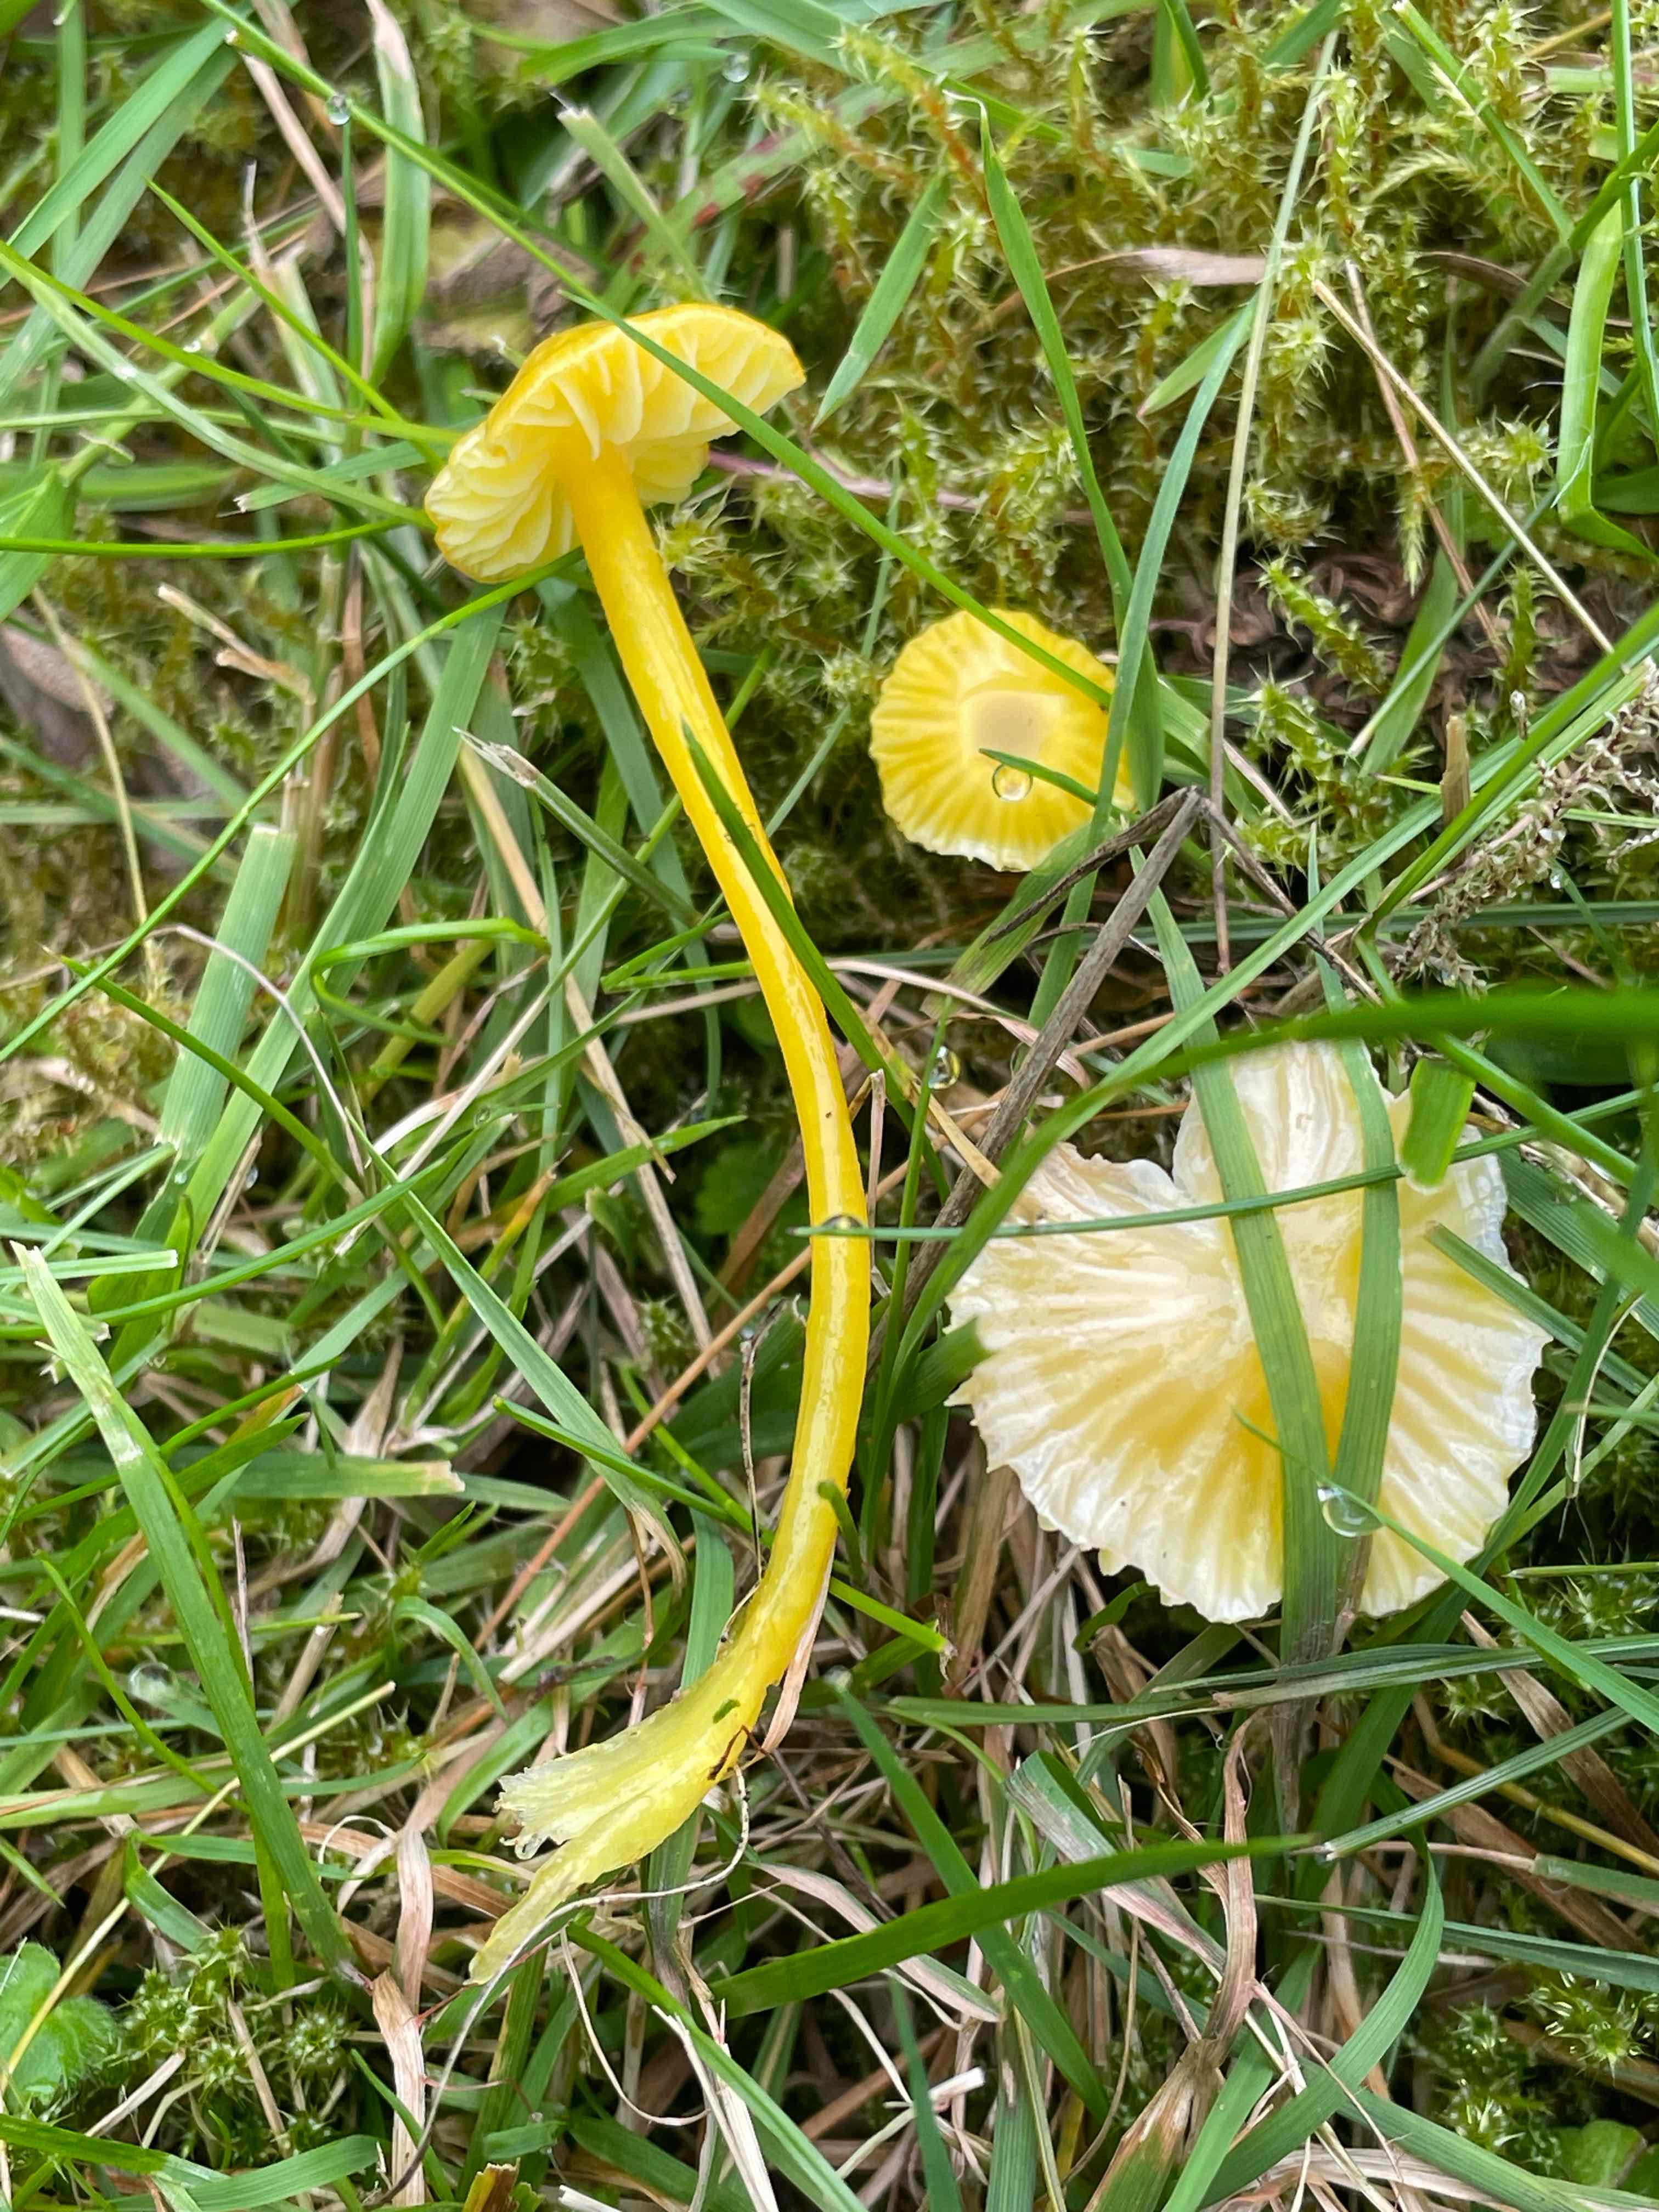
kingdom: Fungi
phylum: Basidiomycota
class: Agaricomycetes
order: Agaricales
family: Hygrophoraceae
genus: Hygrocybe
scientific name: Hygrocybe glutinipes
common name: slimstokket vokshat
